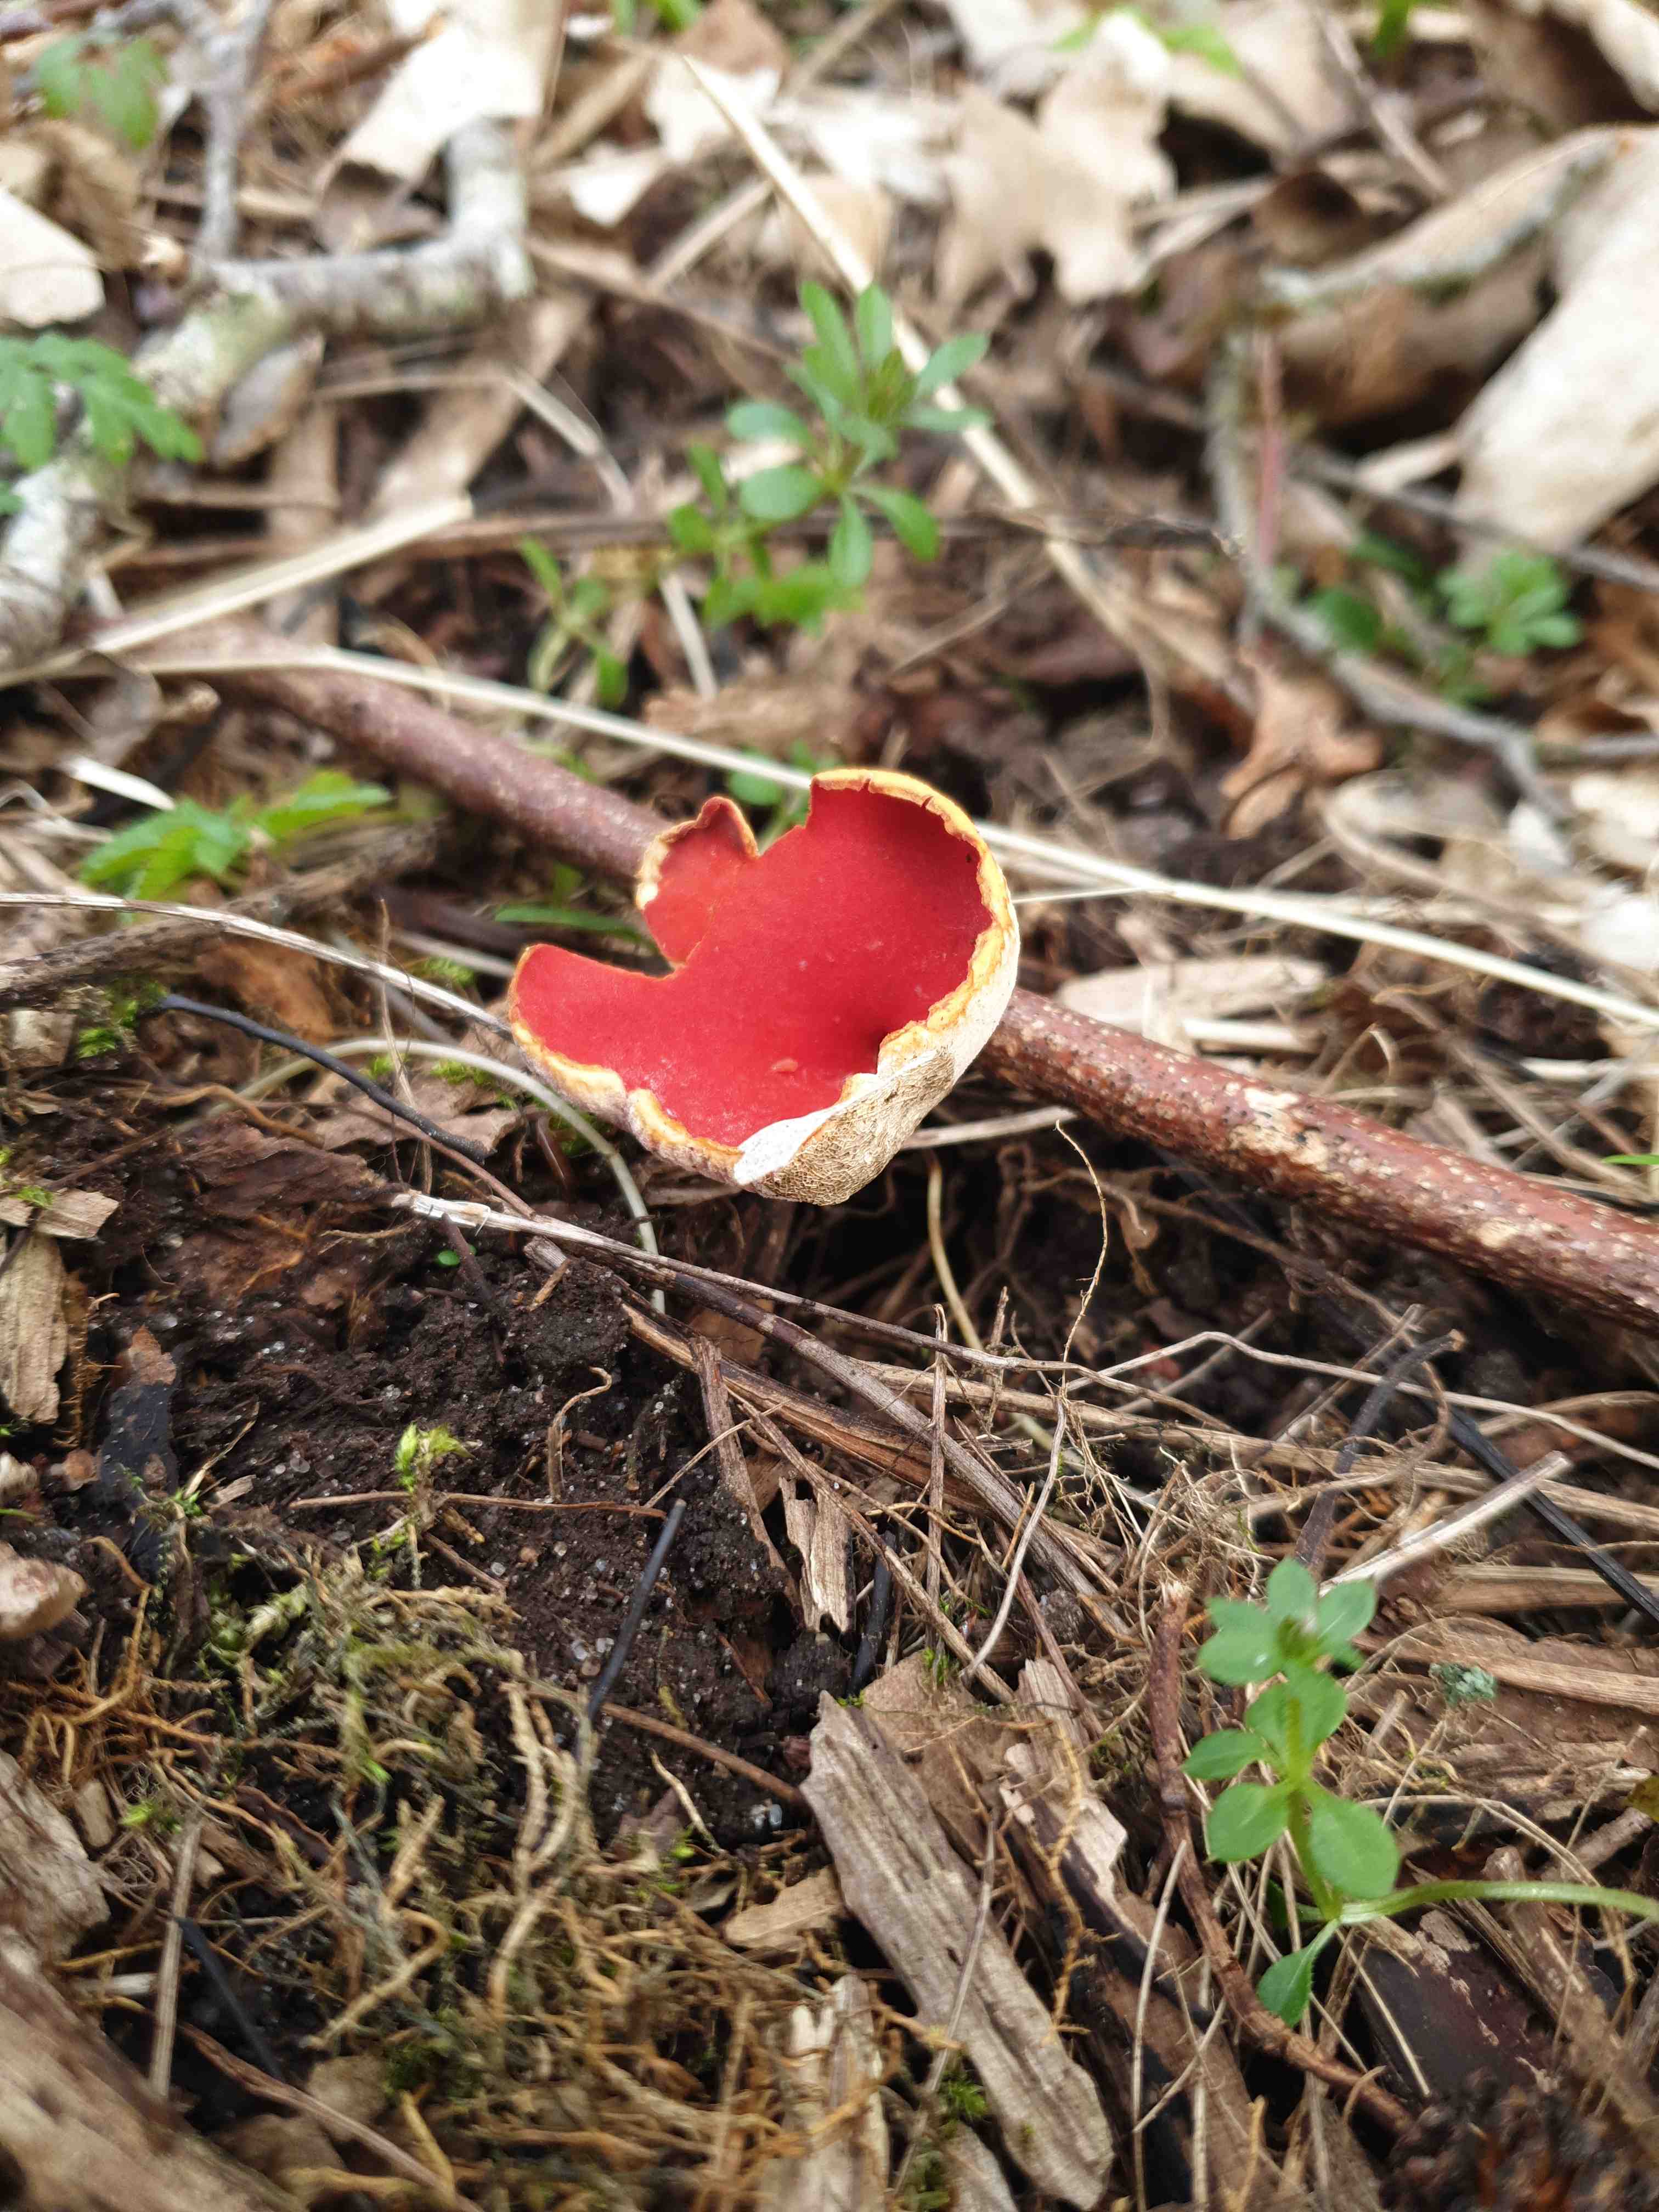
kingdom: Fungi
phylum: Ascomycota
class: Pezizomycetes
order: Pezizales
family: Sarcoscyphaceae
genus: Sarcoscypha
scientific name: Sarcoscypha
